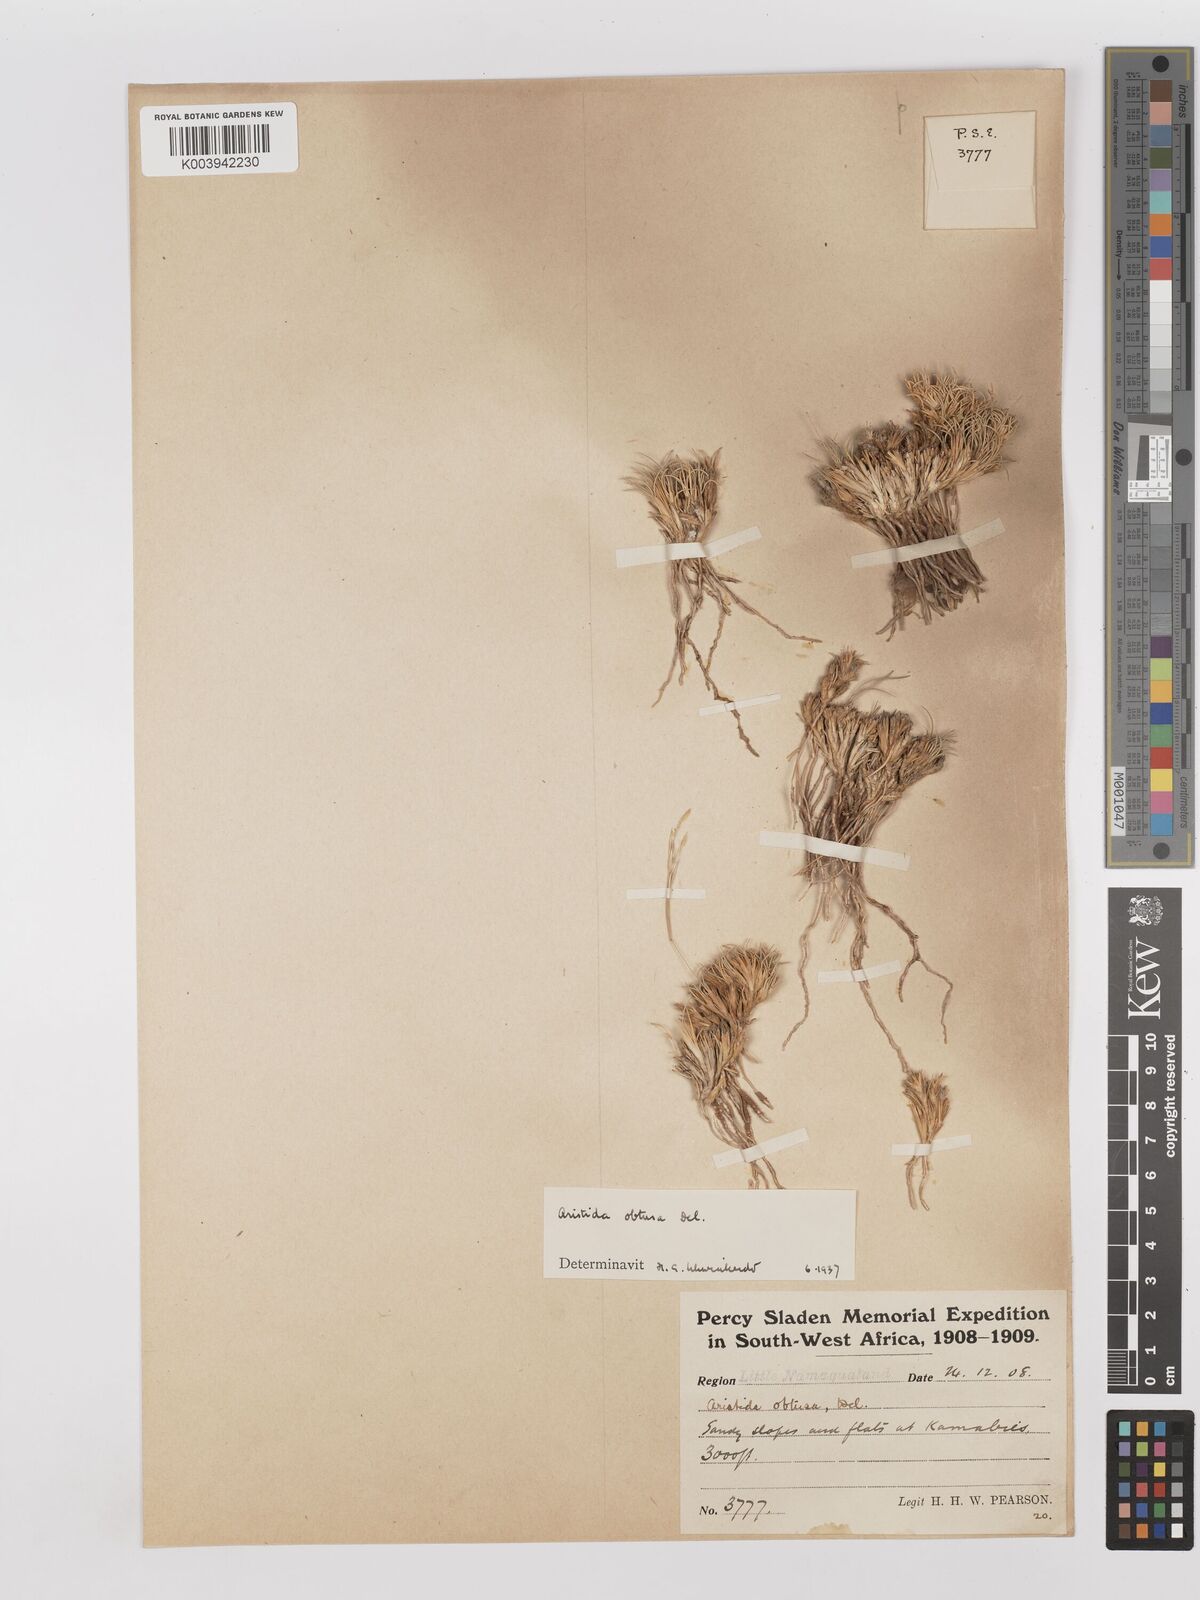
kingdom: Plantae
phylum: Tracheophyta
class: Liliopsida
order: Poales
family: Poaceae
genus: Stipagrostis
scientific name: Stipagrostis obtusa
